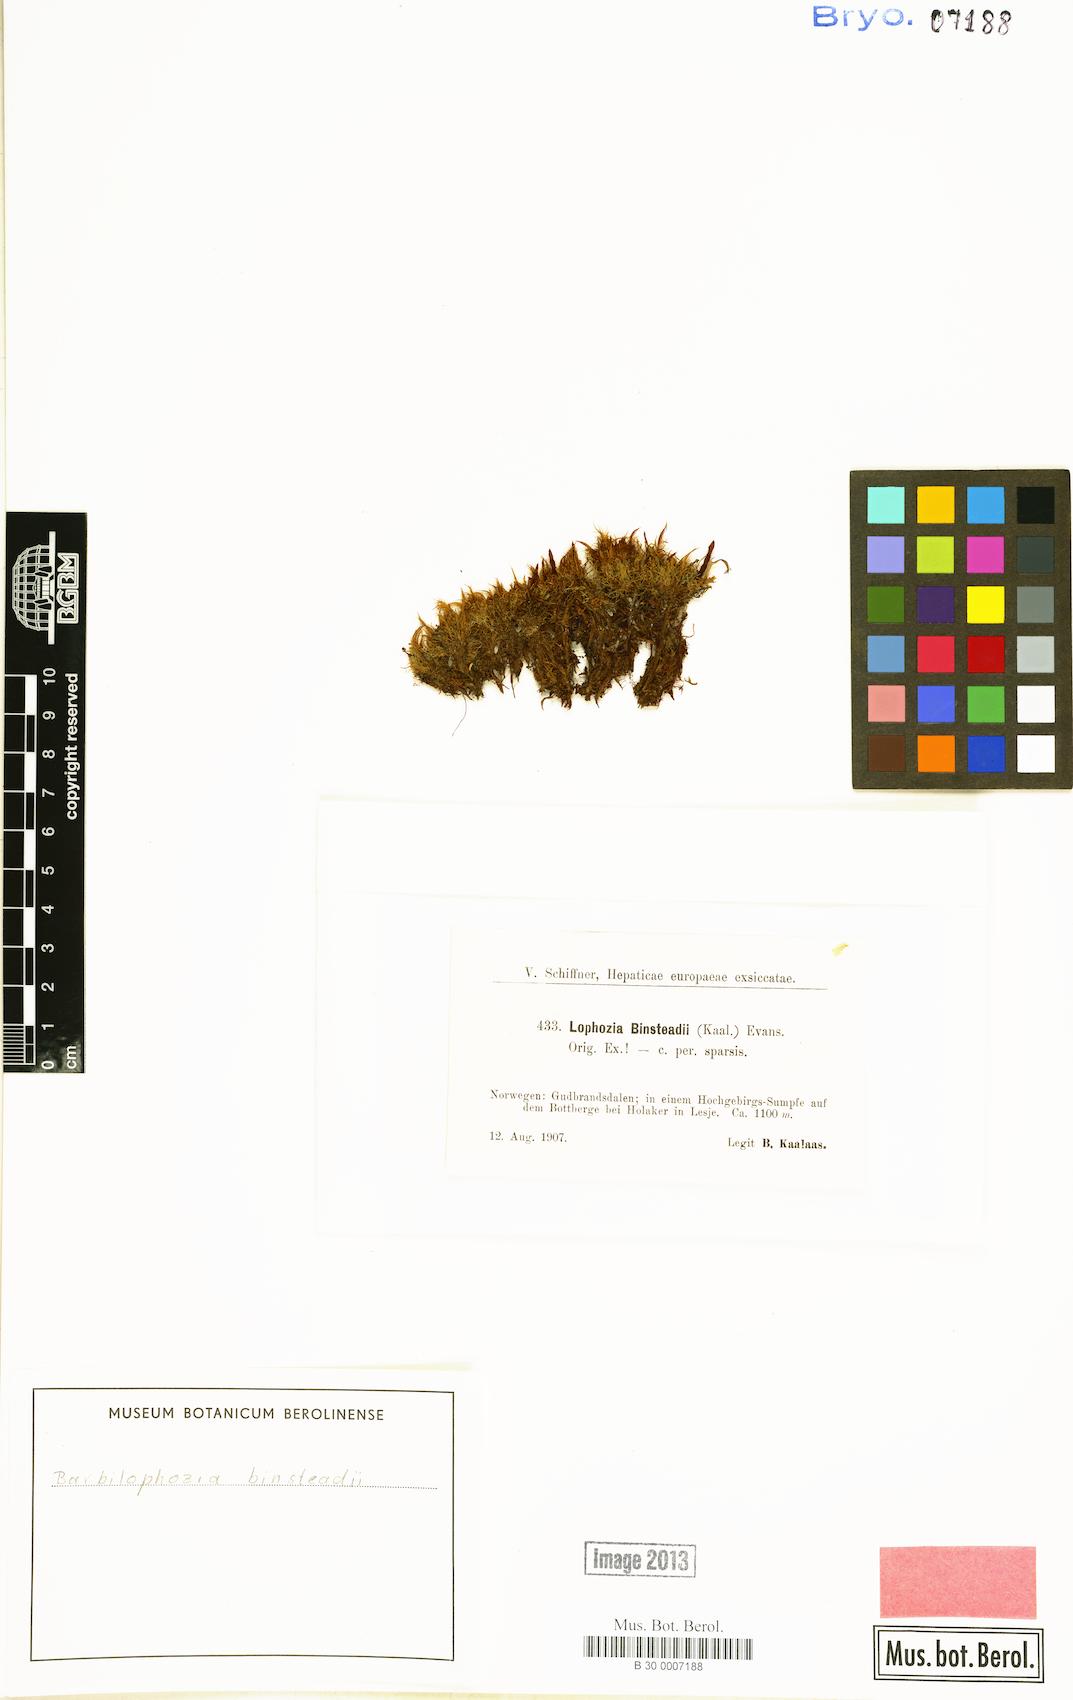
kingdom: Plantae
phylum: Marchantiophyta
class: Jungermanniopsida
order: Jungermanniales
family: Anastrophyllaceae
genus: Neoorthocaulis
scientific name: Neoorthocaulis binsteadii
